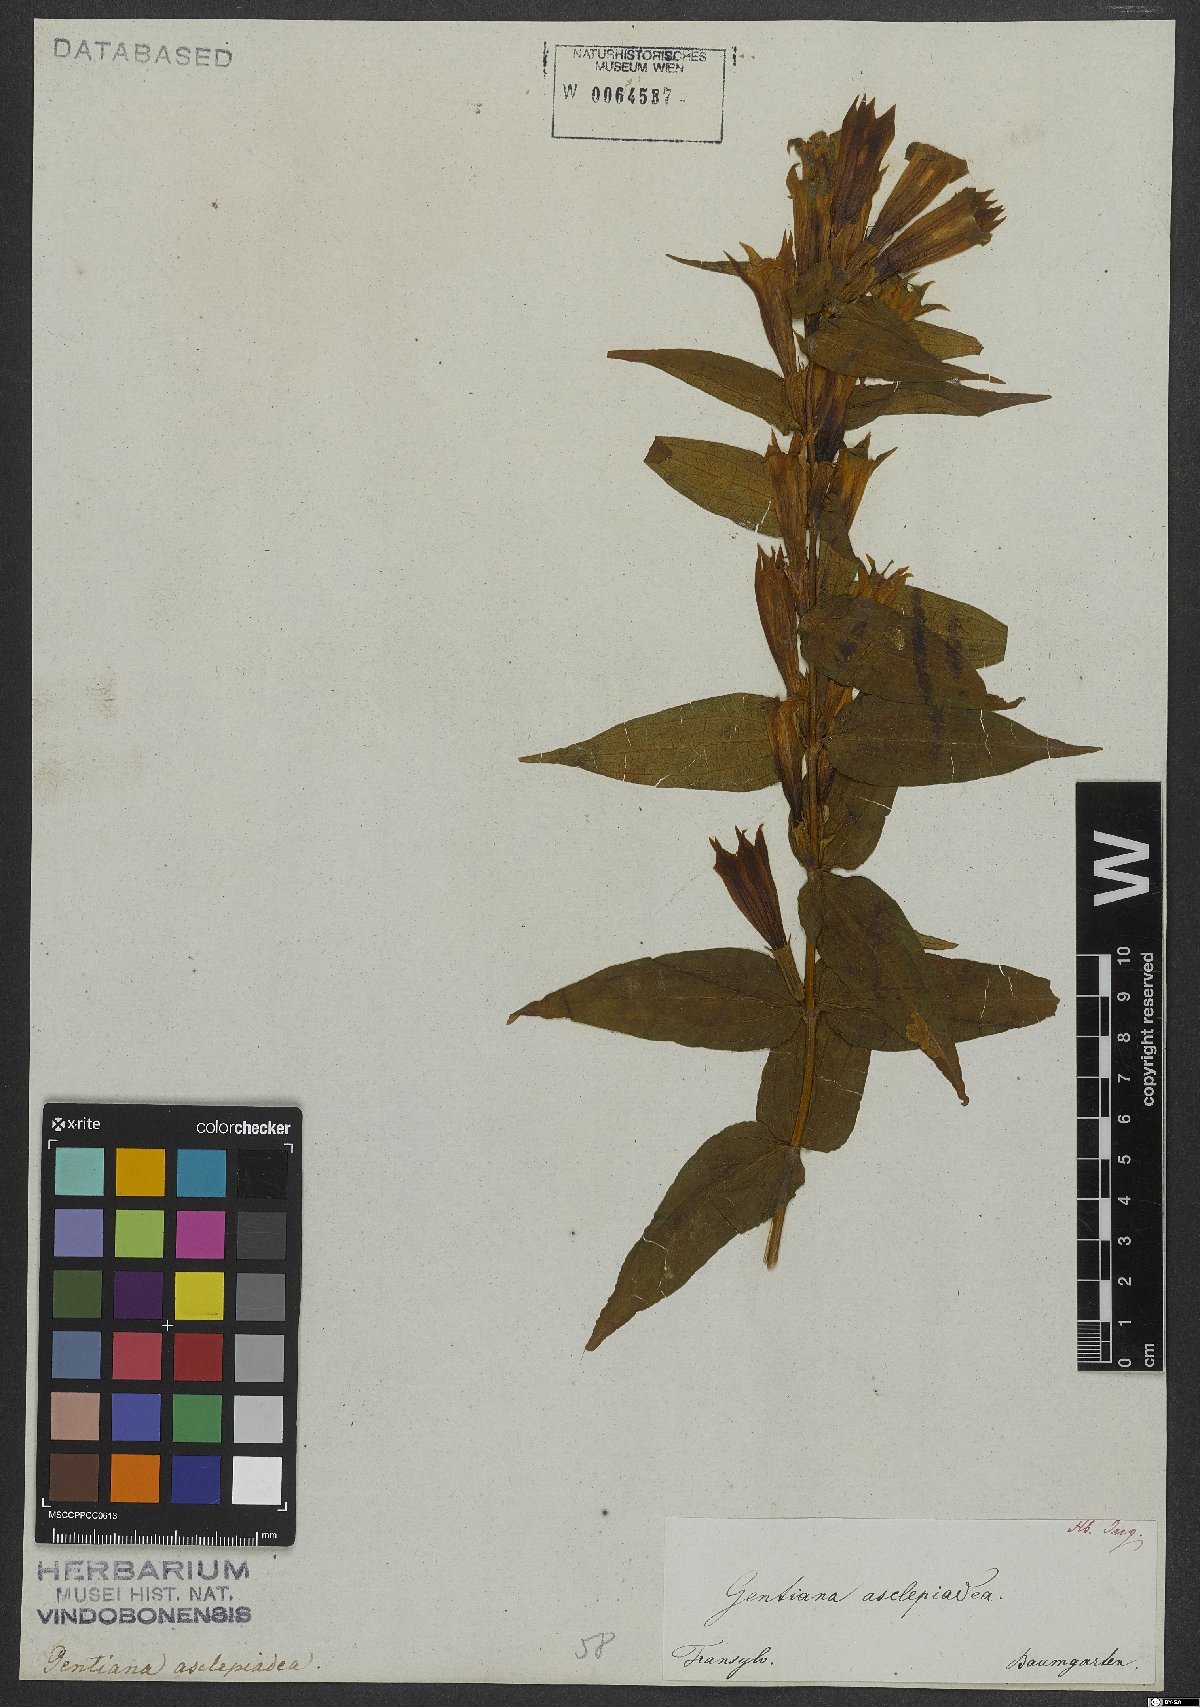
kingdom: Plantae
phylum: Tracheophyta
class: Magnoliopsida
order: Gentianales
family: Gentianaceae
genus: Gentiana
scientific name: Gentiana asclepiadea
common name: Willow gentian
